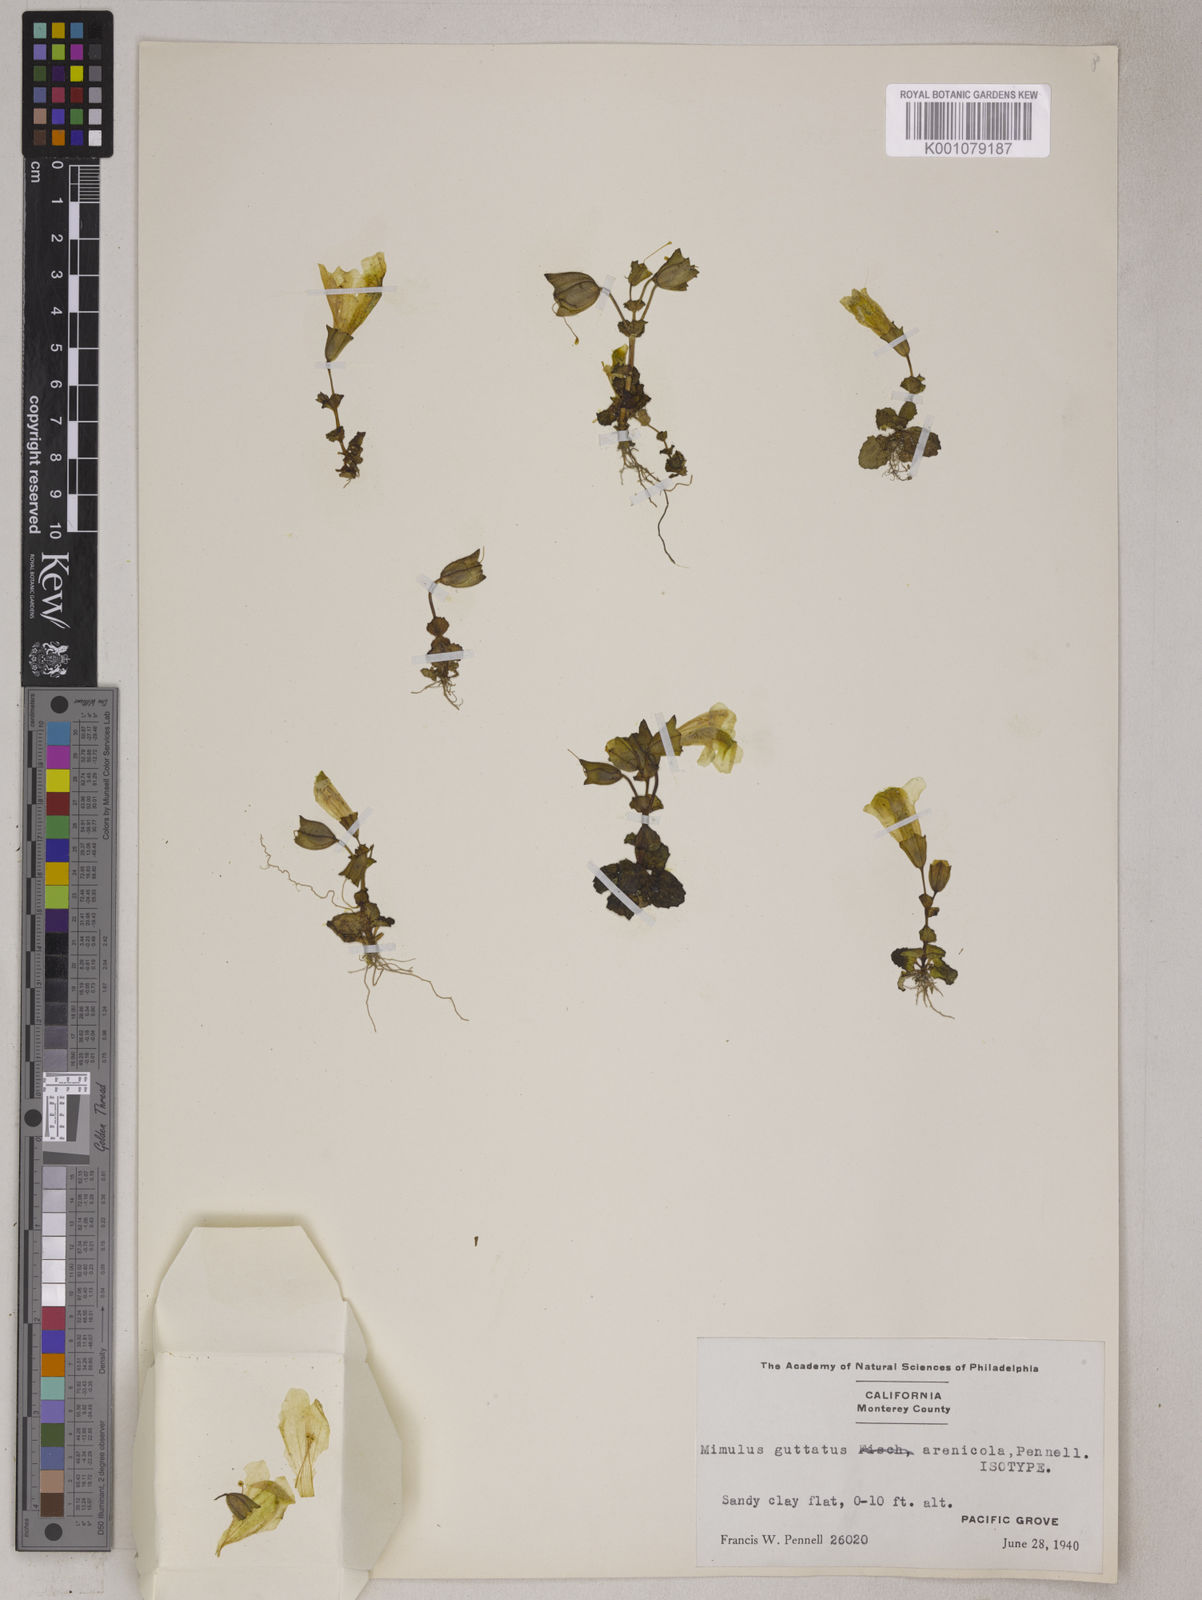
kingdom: Plantae
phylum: Tracheophyta
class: Magnoliopsida
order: Lamiales
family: Phrymaceae
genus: Erythranthe
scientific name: Erythranthe arenicola
